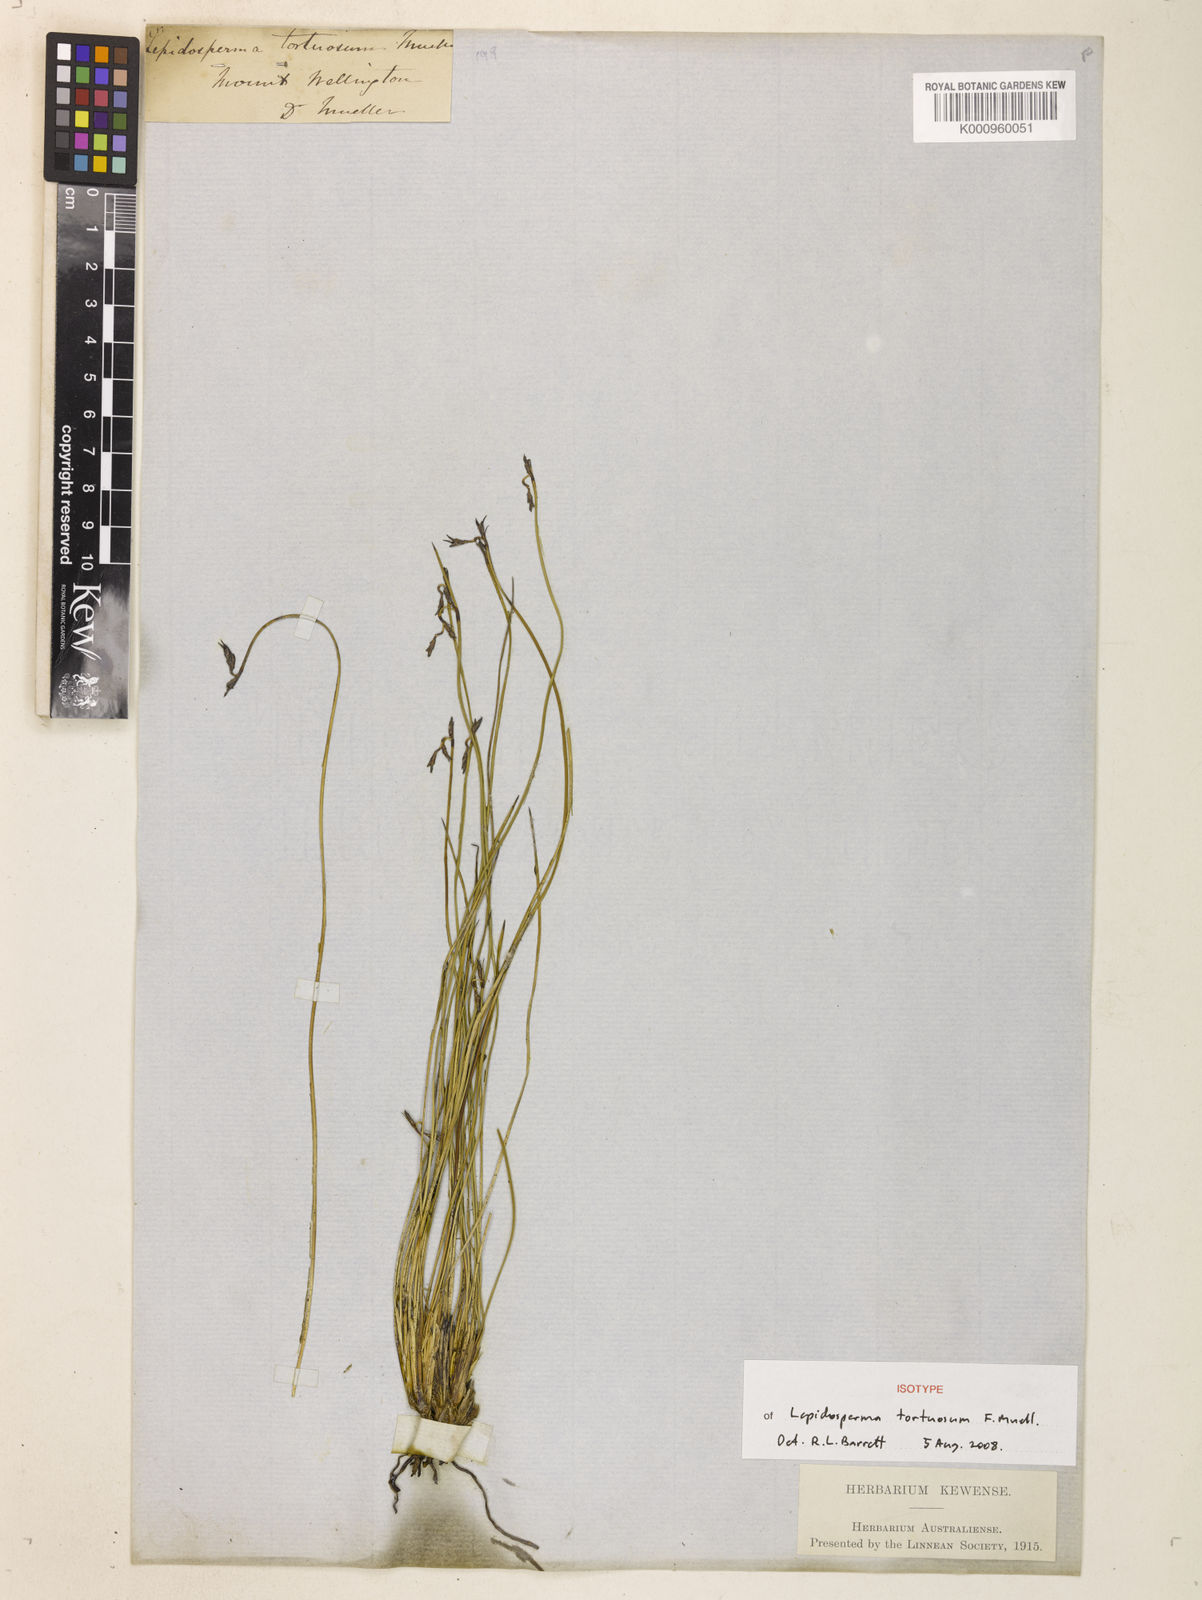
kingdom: Plantae
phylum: Tracheophyta
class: Liliopsida
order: Poales
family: Cyperaceae
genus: Lepidosperma
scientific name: Lepidosperma tortuosum
